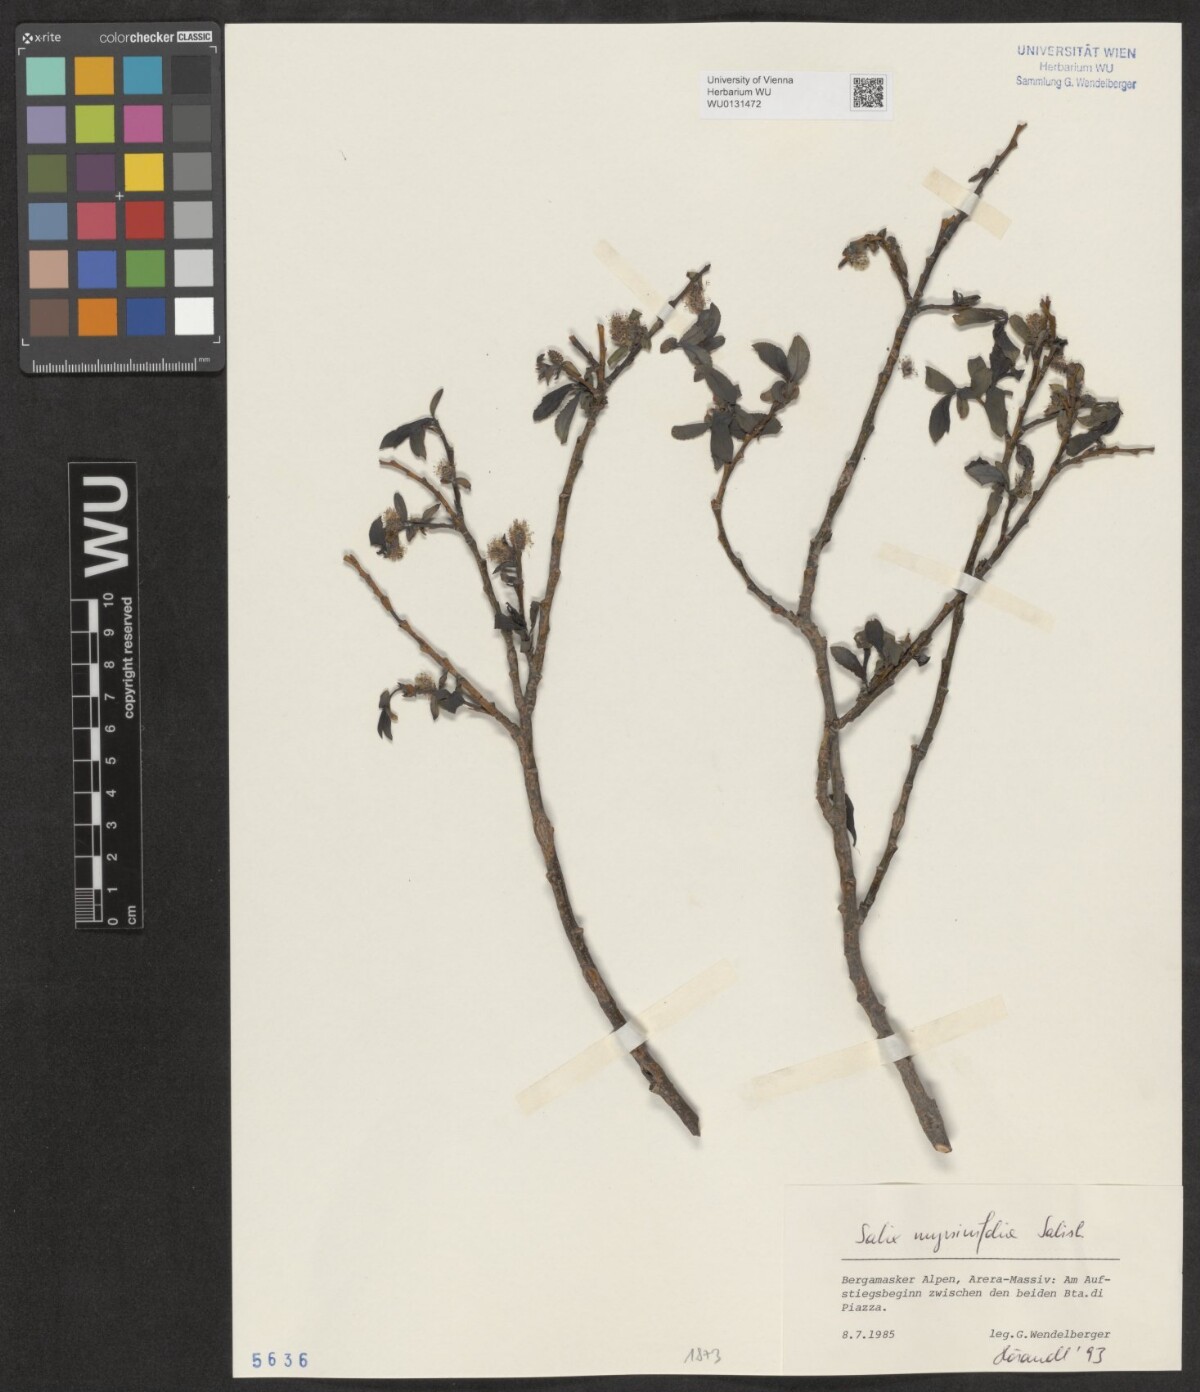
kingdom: Plantae
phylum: Tracheophyta
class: Magnoliopsida
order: Malpighiales
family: Salicaceae
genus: Salix
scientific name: Salix myrsinifolia
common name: Dark-leaved willow
